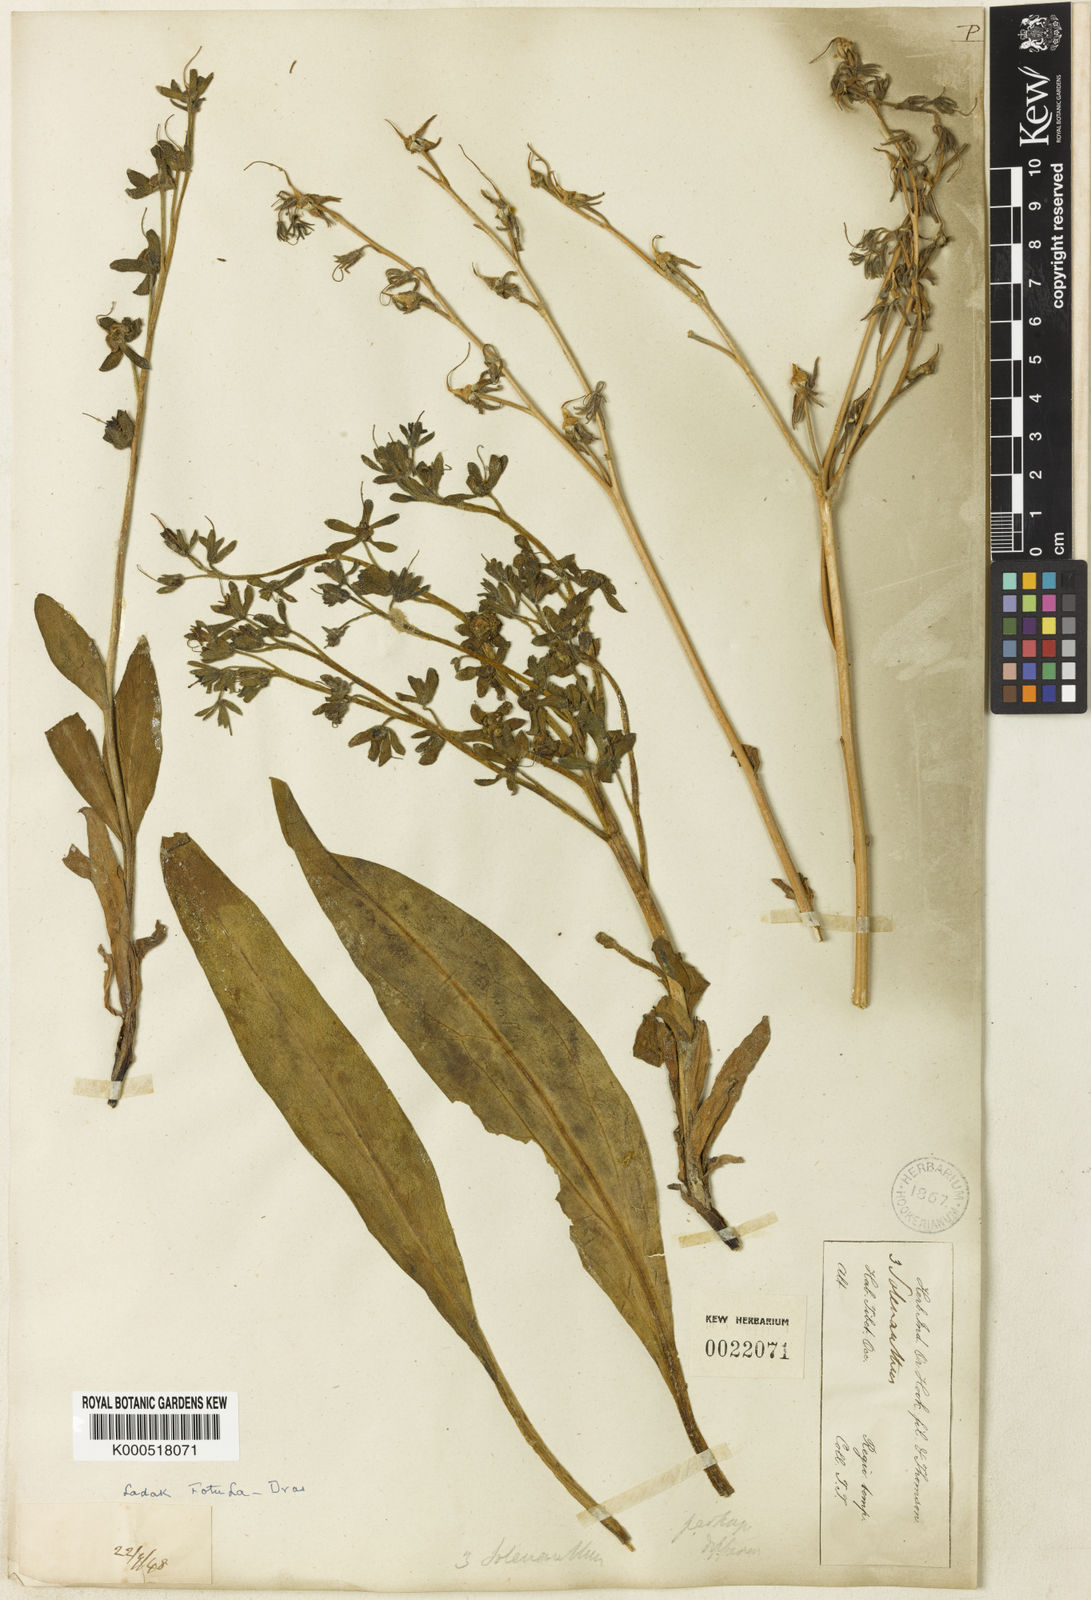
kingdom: Plantae
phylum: Tracheophyta
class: Magnoliopsida
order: Boraginales
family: Boraginaceae
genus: Lindelofia
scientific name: Lindelofia stylosa
